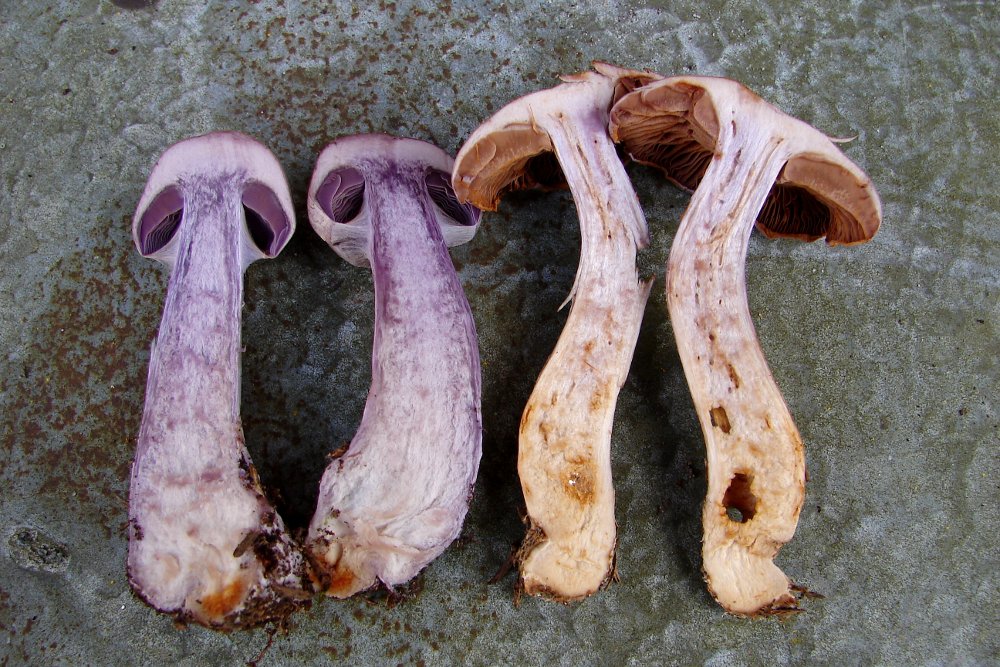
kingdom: Fungi
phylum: Basidiomycota
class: Agaricomycetes
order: Agaricales
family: Cortinariaceae
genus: Cortinarius
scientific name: Cortinarius camphoratus
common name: stinkende slørhat
